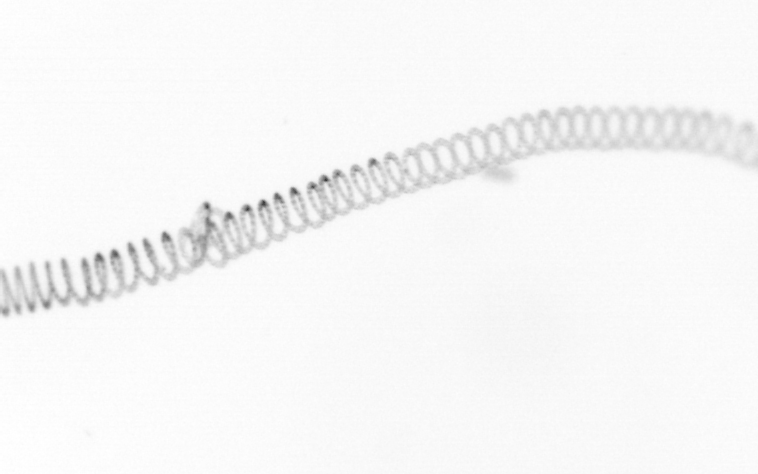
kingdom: Chromista
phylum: Ochrophyta
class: Bacillariophyceae
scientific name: Bacillariophyceae
